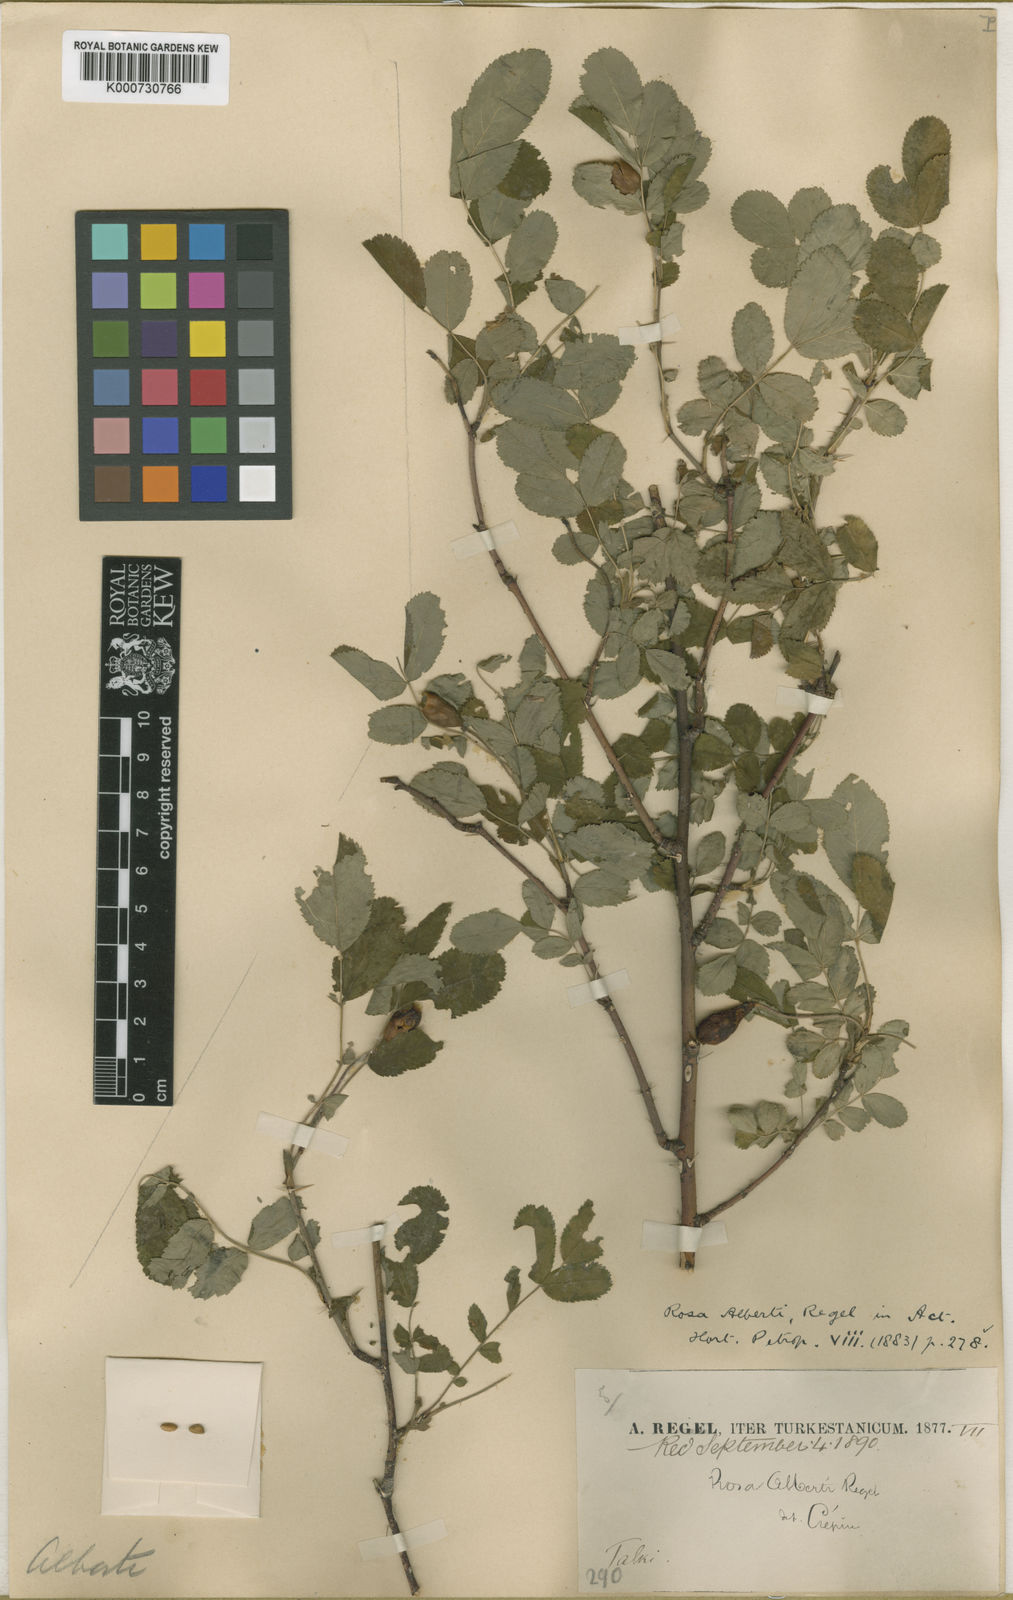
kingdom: Plantae
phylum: Tracheophyta
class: Magnoliopsida
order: Rosales
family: Rosaceae
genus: Rosa
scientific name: Rosa alberti
